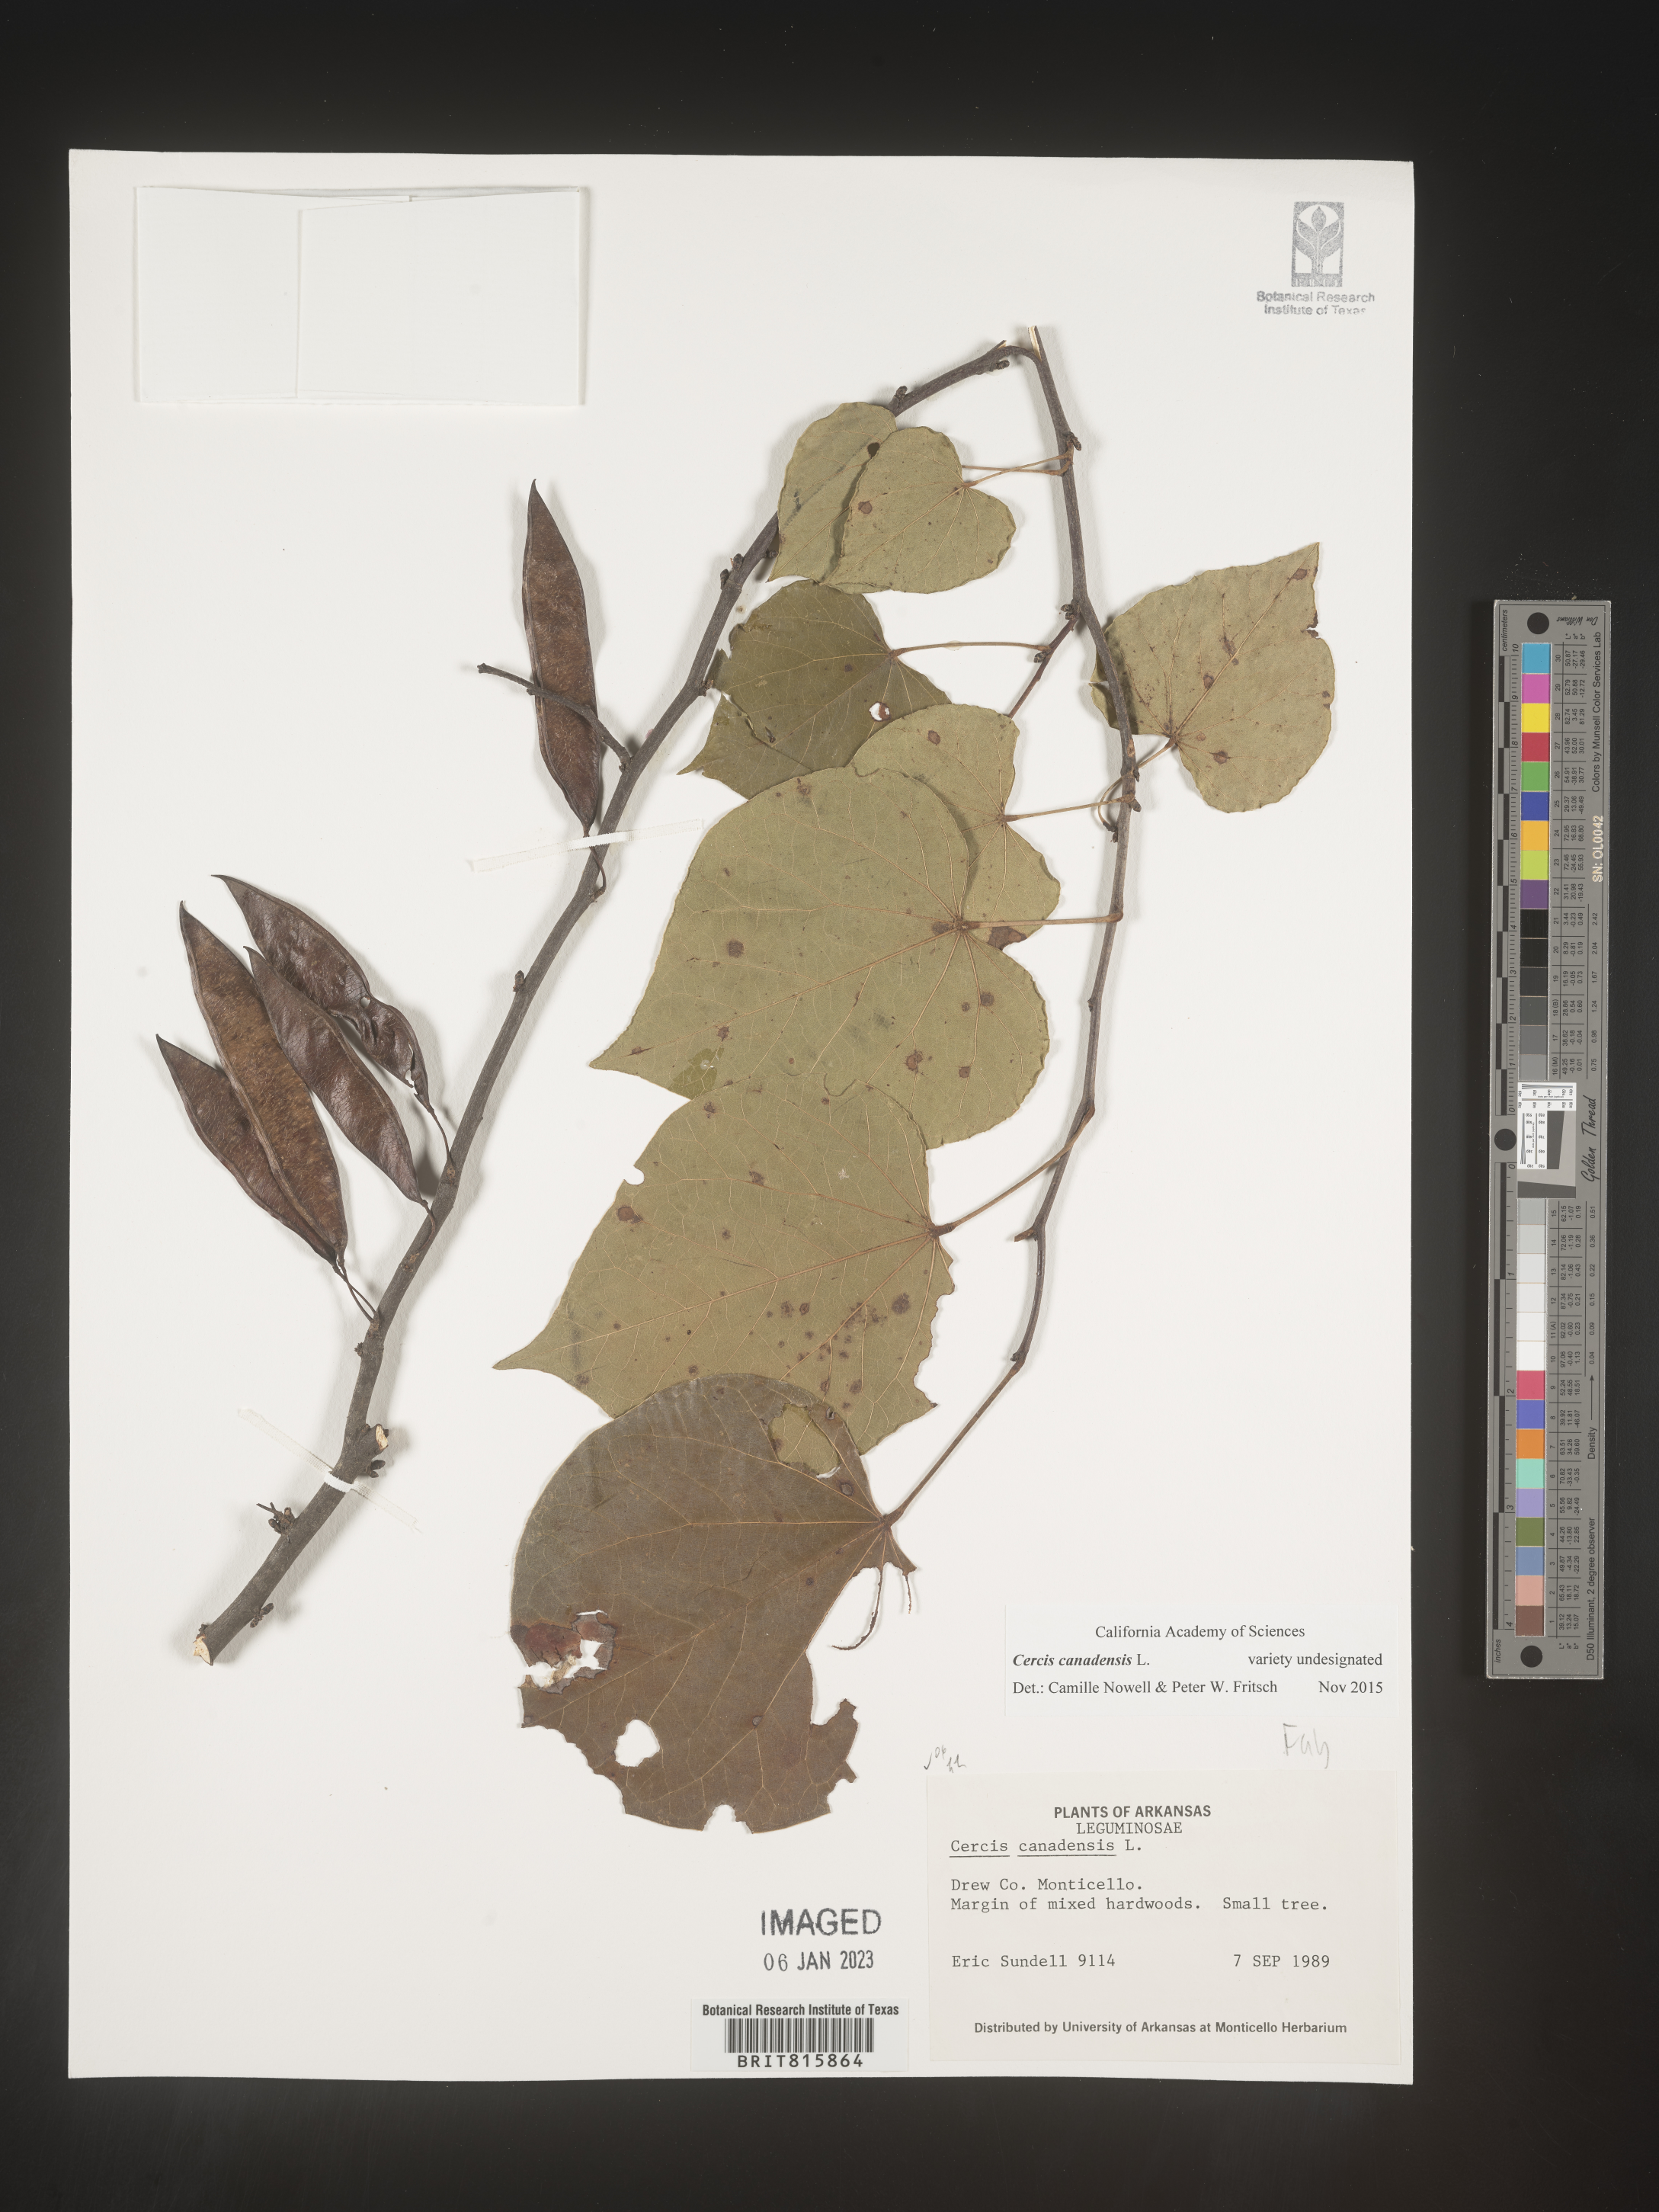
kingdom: Plantae
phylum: Tracheophyta
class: Magnoliopsida
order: Fabales
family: Fabaceae
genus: Cercis
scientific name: Cercis canadensis
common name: Eastern redbud
